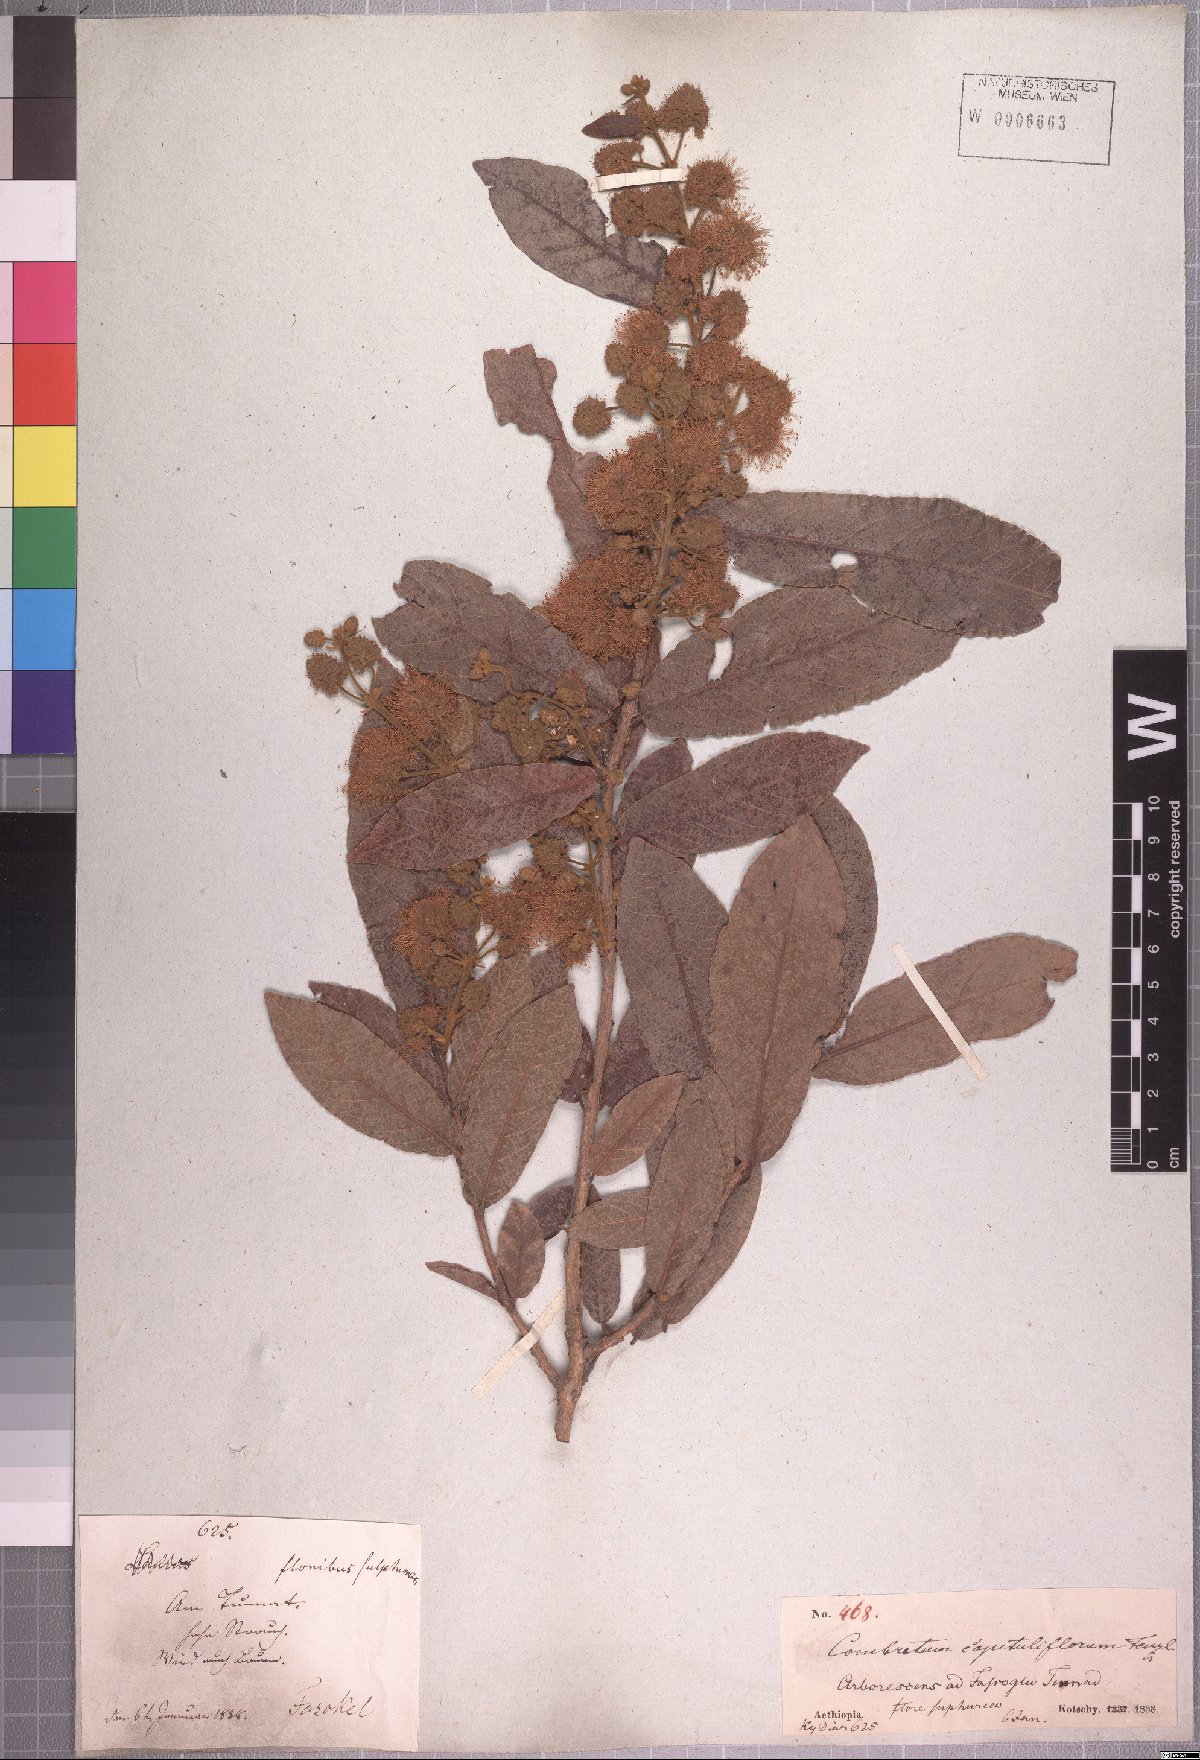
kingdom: Plantae
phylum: Tracheophyta
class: Magnoliopsida
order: Myrtales
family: Combretaceae
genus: Combretum
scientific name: Combretum capituliflorum
